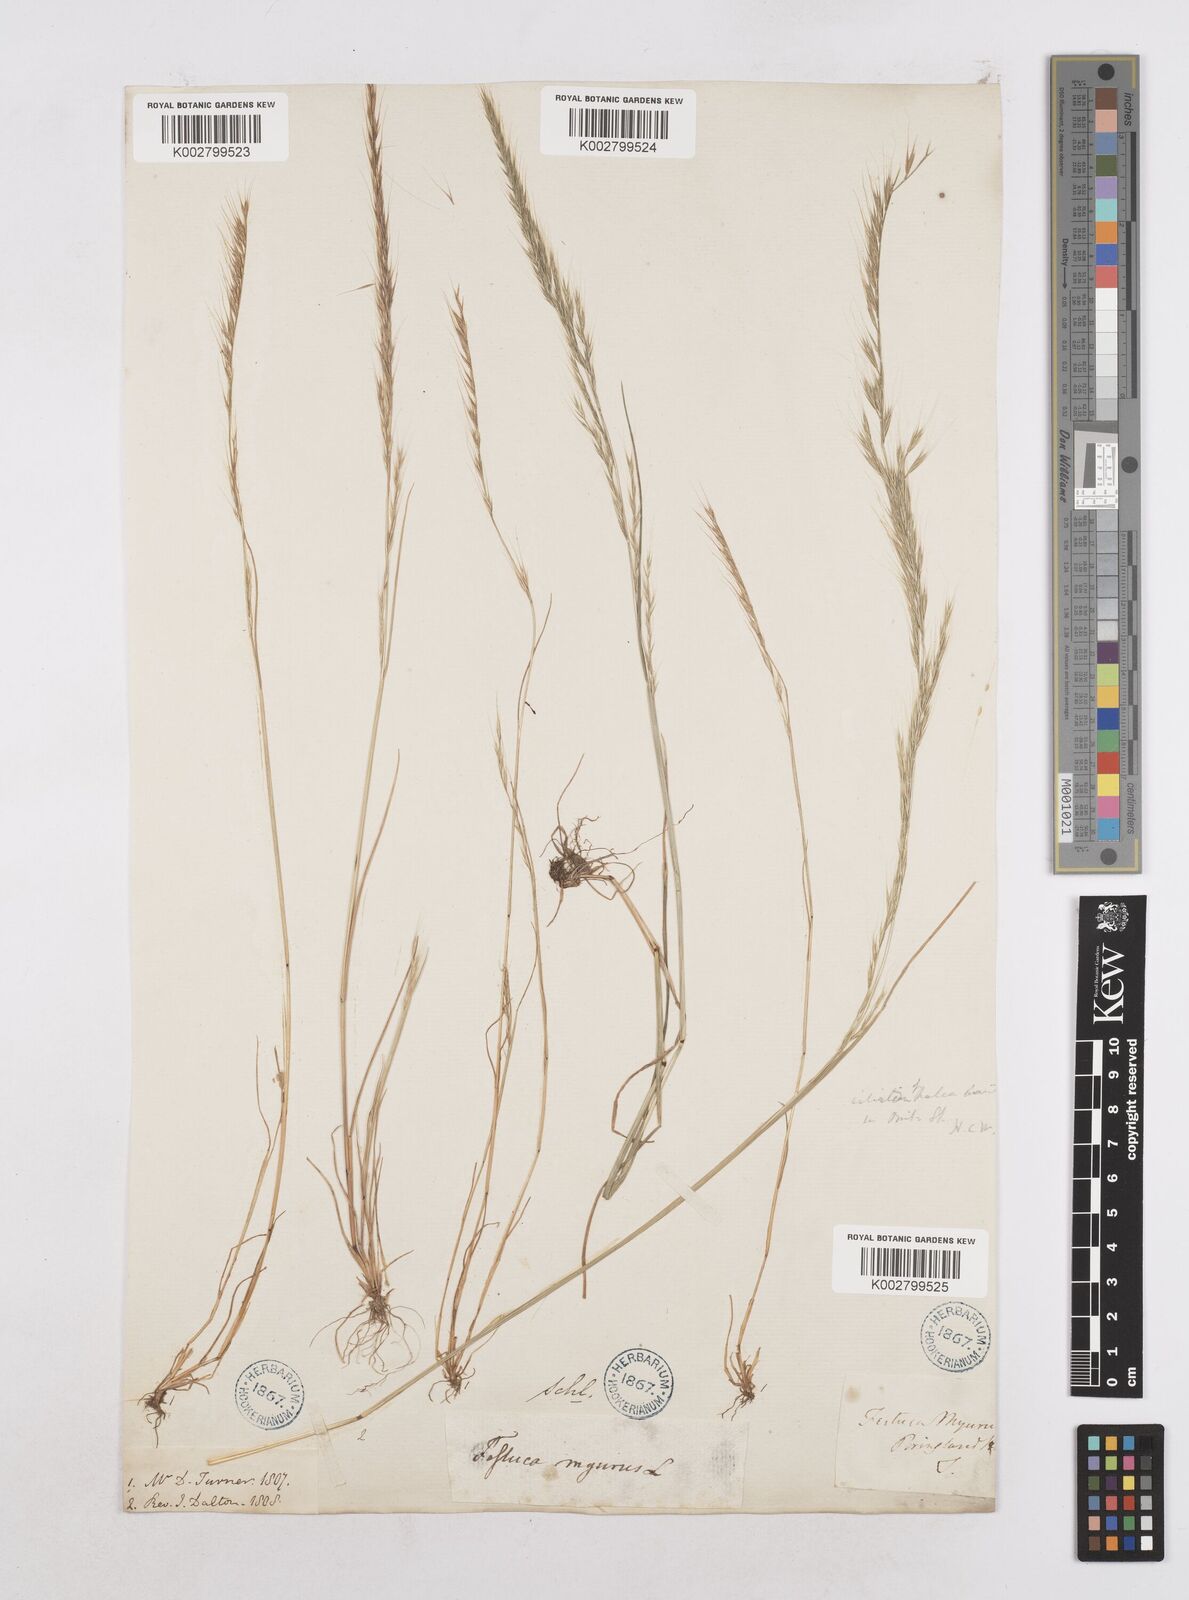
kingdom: Plantae
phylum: Tracheophyta
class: Liliopsida
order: Poales
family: Poaceae
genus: Festuca
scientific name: Festuca myuros
